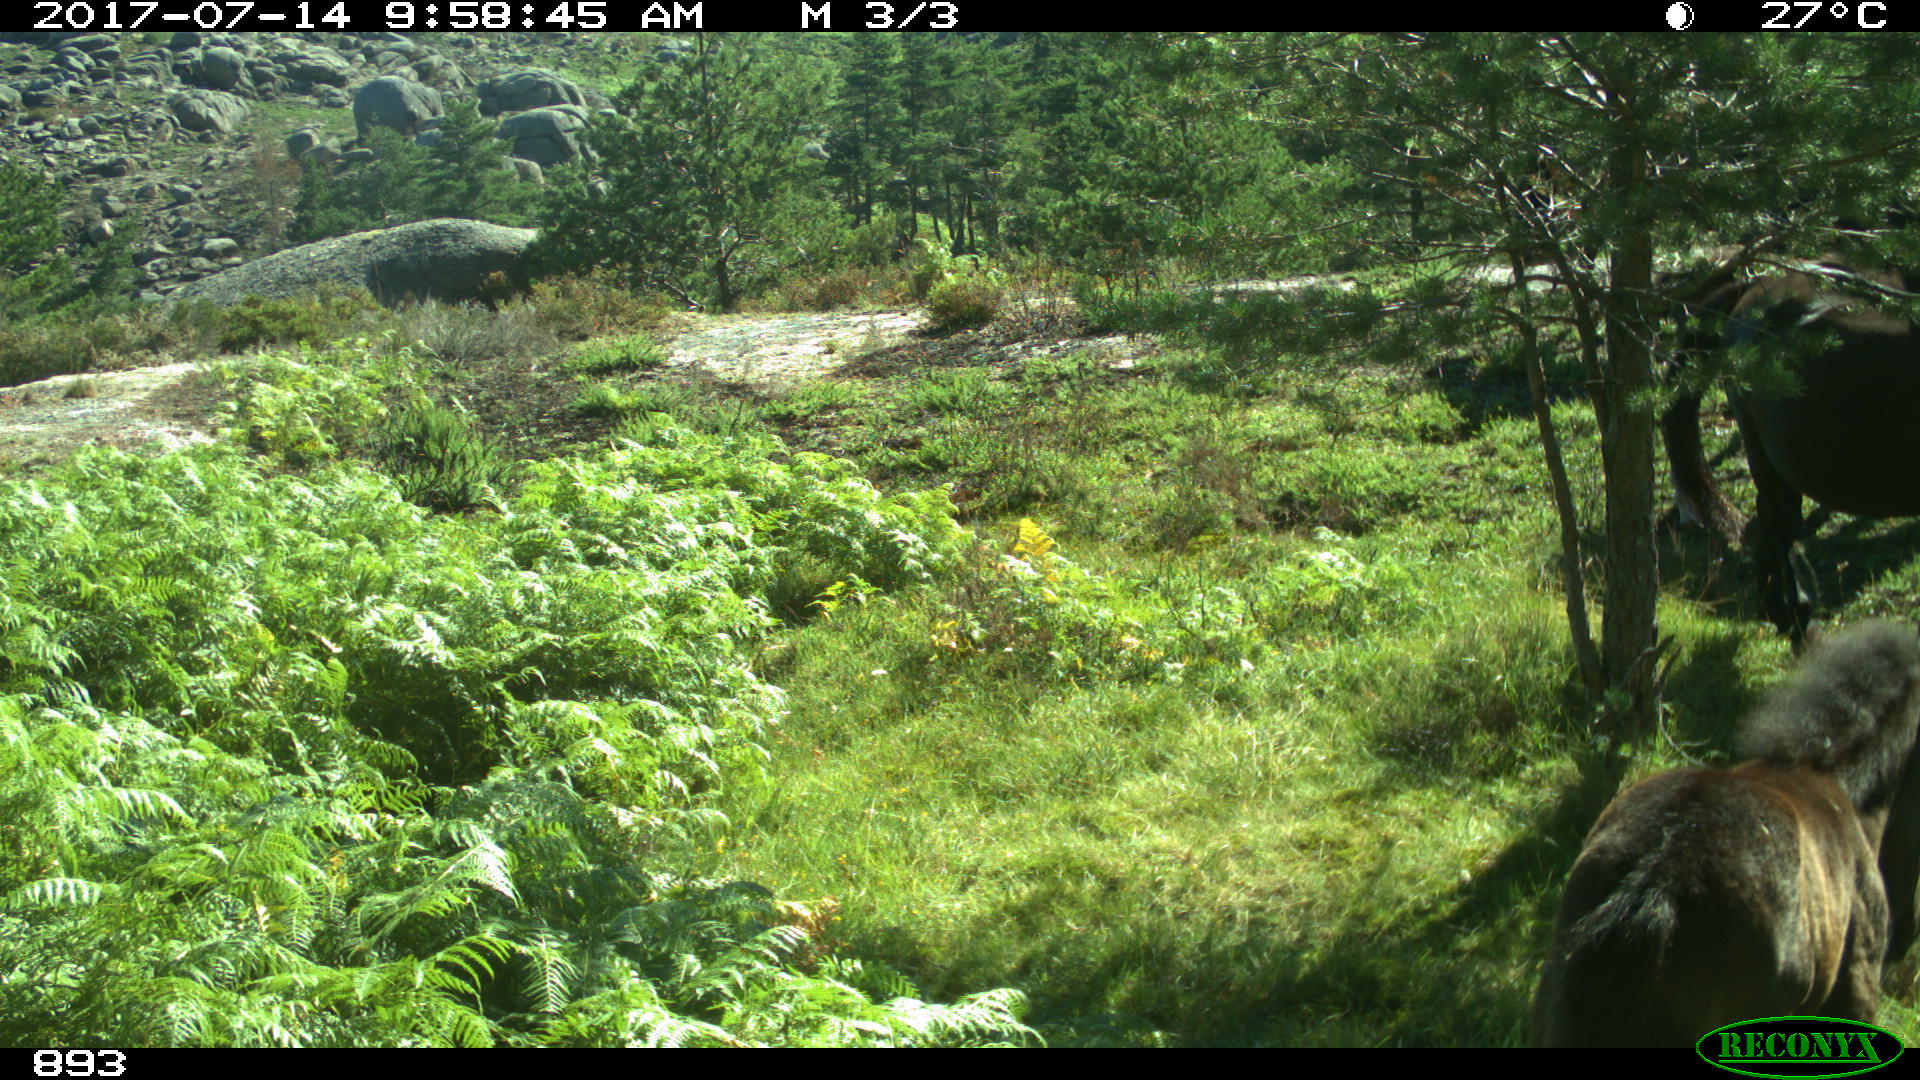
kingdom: Animalia
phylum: Chordata
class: Mammalia
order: Perissodactyla
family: Equidae
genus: Equus
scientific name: Equus caballus
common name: Horse
